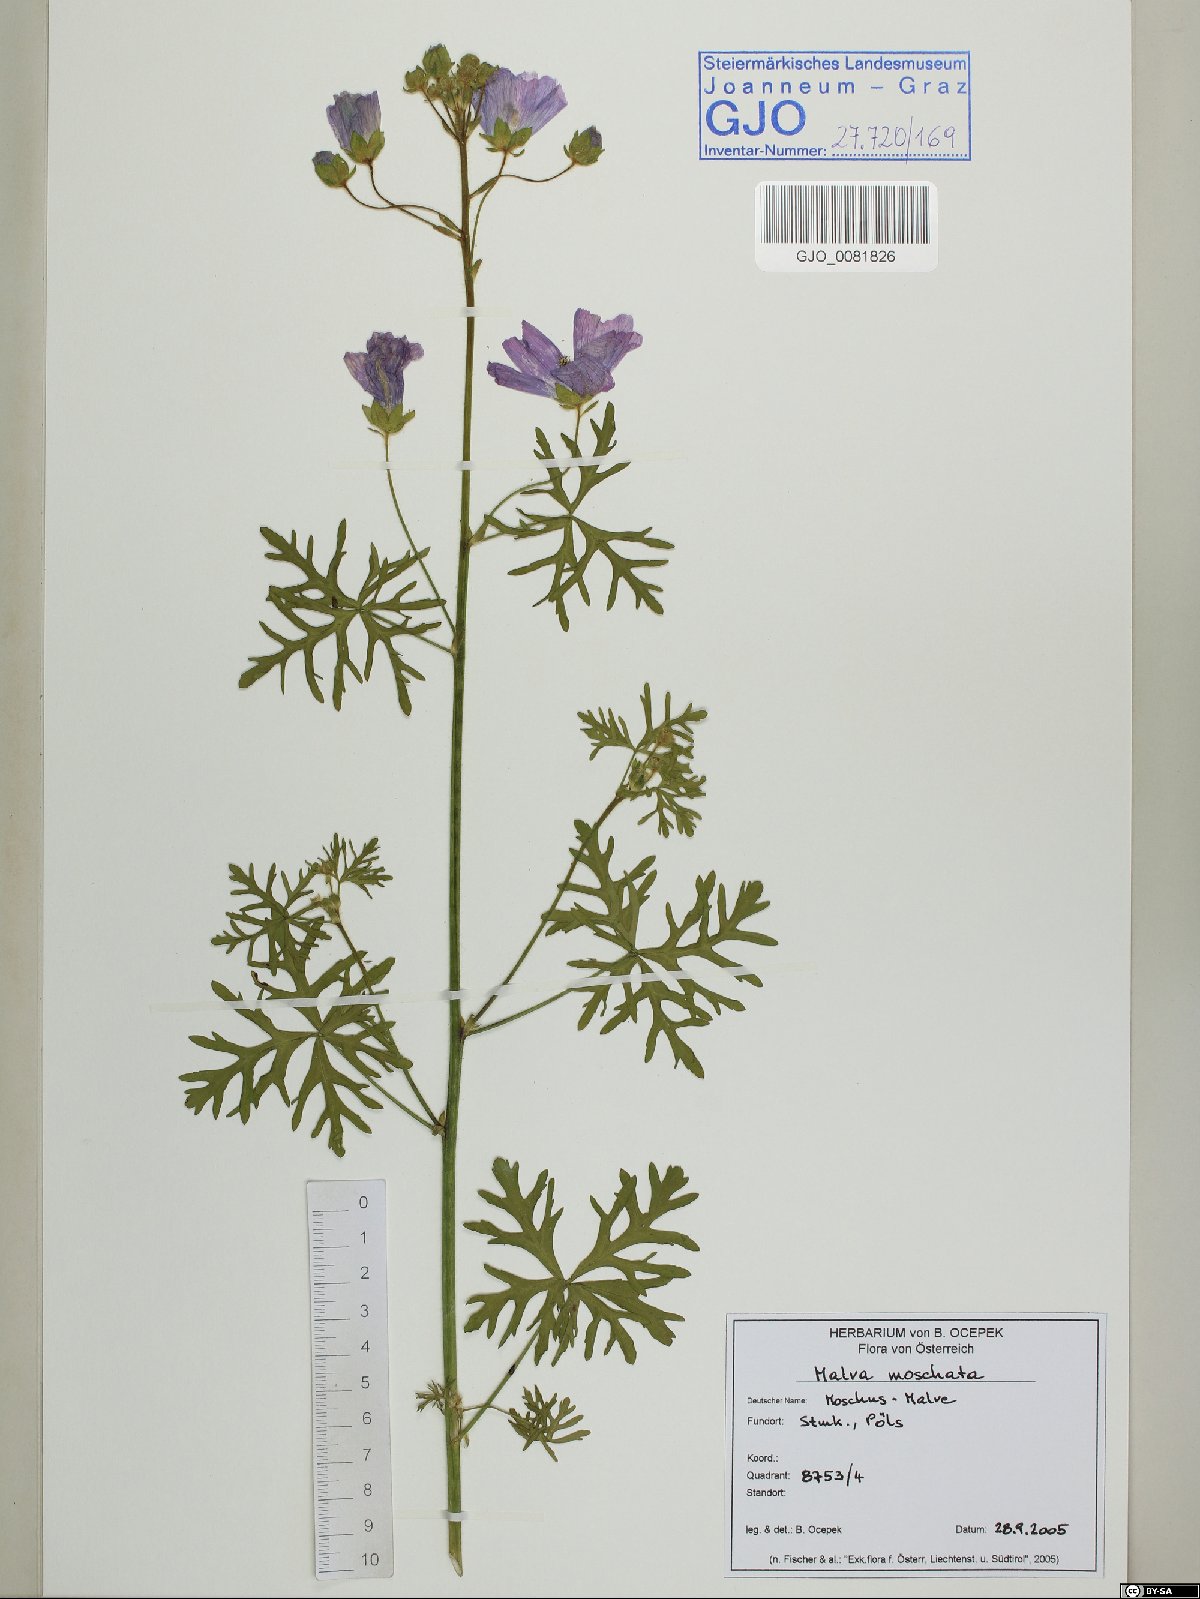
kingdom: Plantae
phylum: Tracheophyta
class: Magnoliopsida
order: Malvales
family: Malvaceae
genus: Malva
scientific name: Malva moschata
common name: Musk mallow
